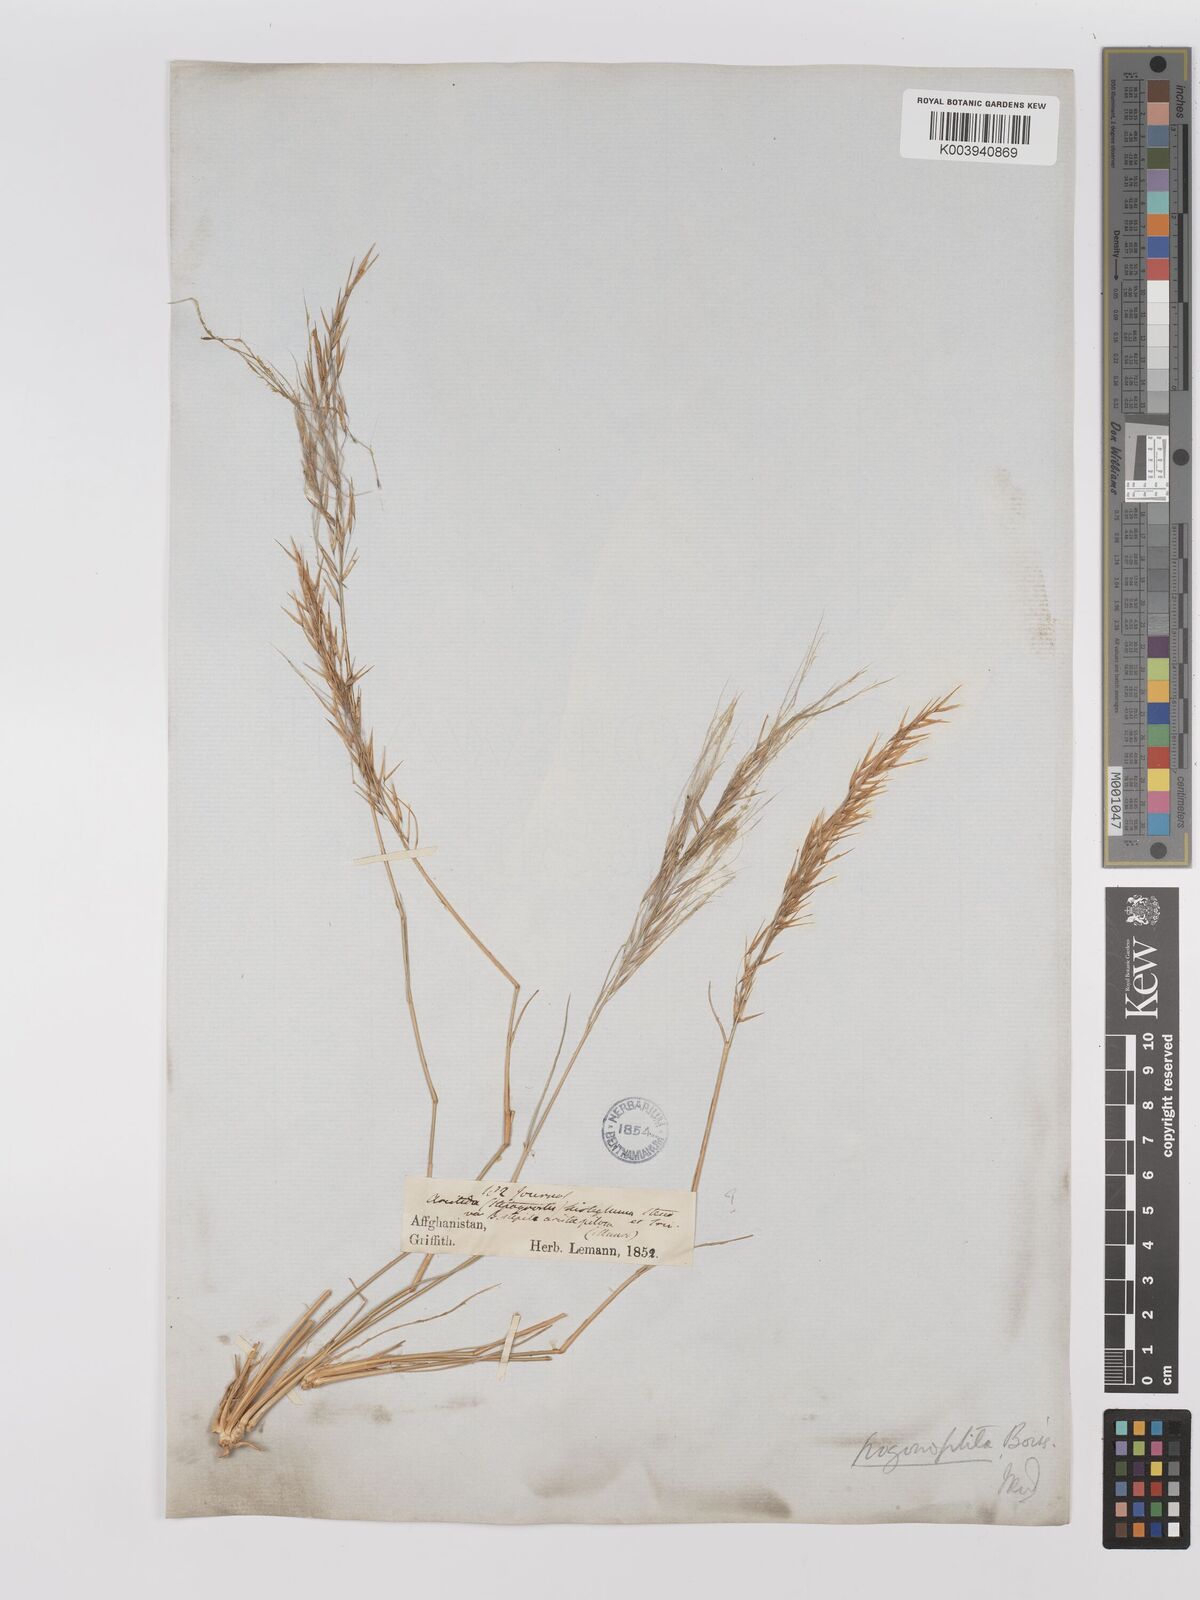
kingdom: Plantae
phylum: Tracheophyta
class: Liliopsida
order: Poales
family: Poaceae
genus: Stipagrostis
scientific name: Stipagrostis uniplumis
